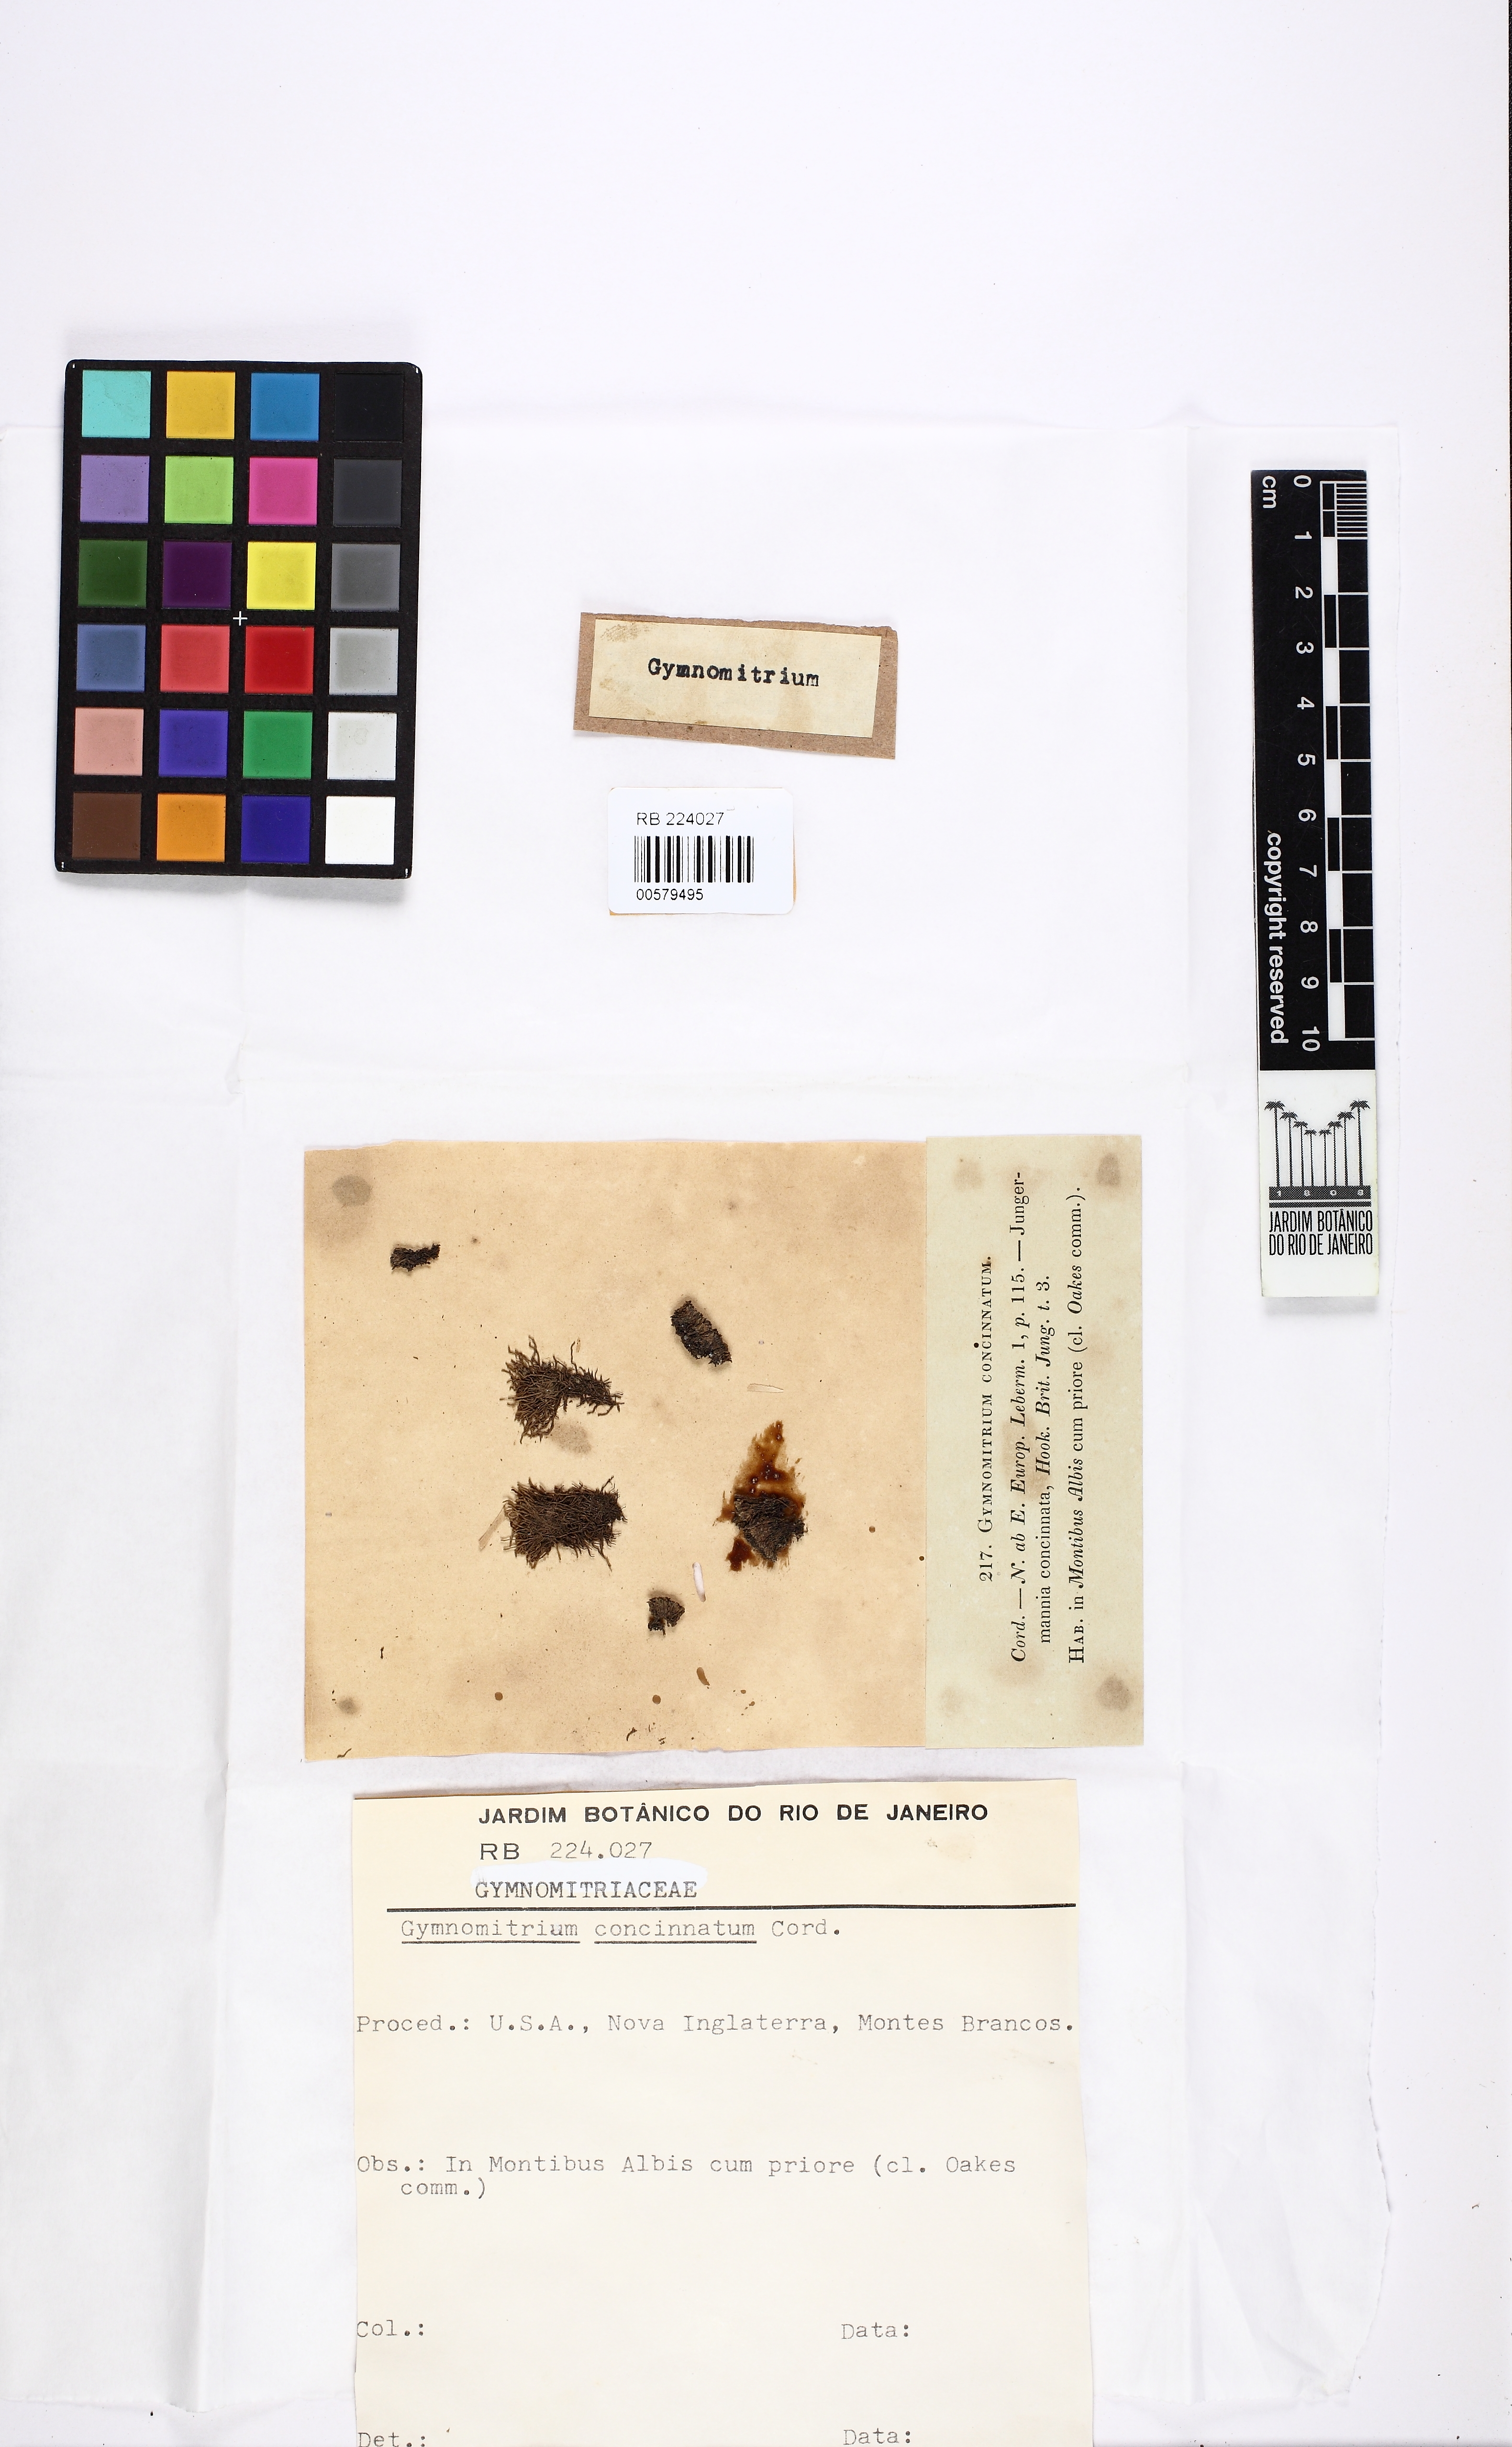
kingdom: Plantae
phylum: Marchantiophyta
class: Jungermanniopsida
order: Jungermanniales
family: Gymnomitriaceae
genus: Gymnomitrion
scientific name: Gymnomitrion concinnatum
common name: Braided frostwort
